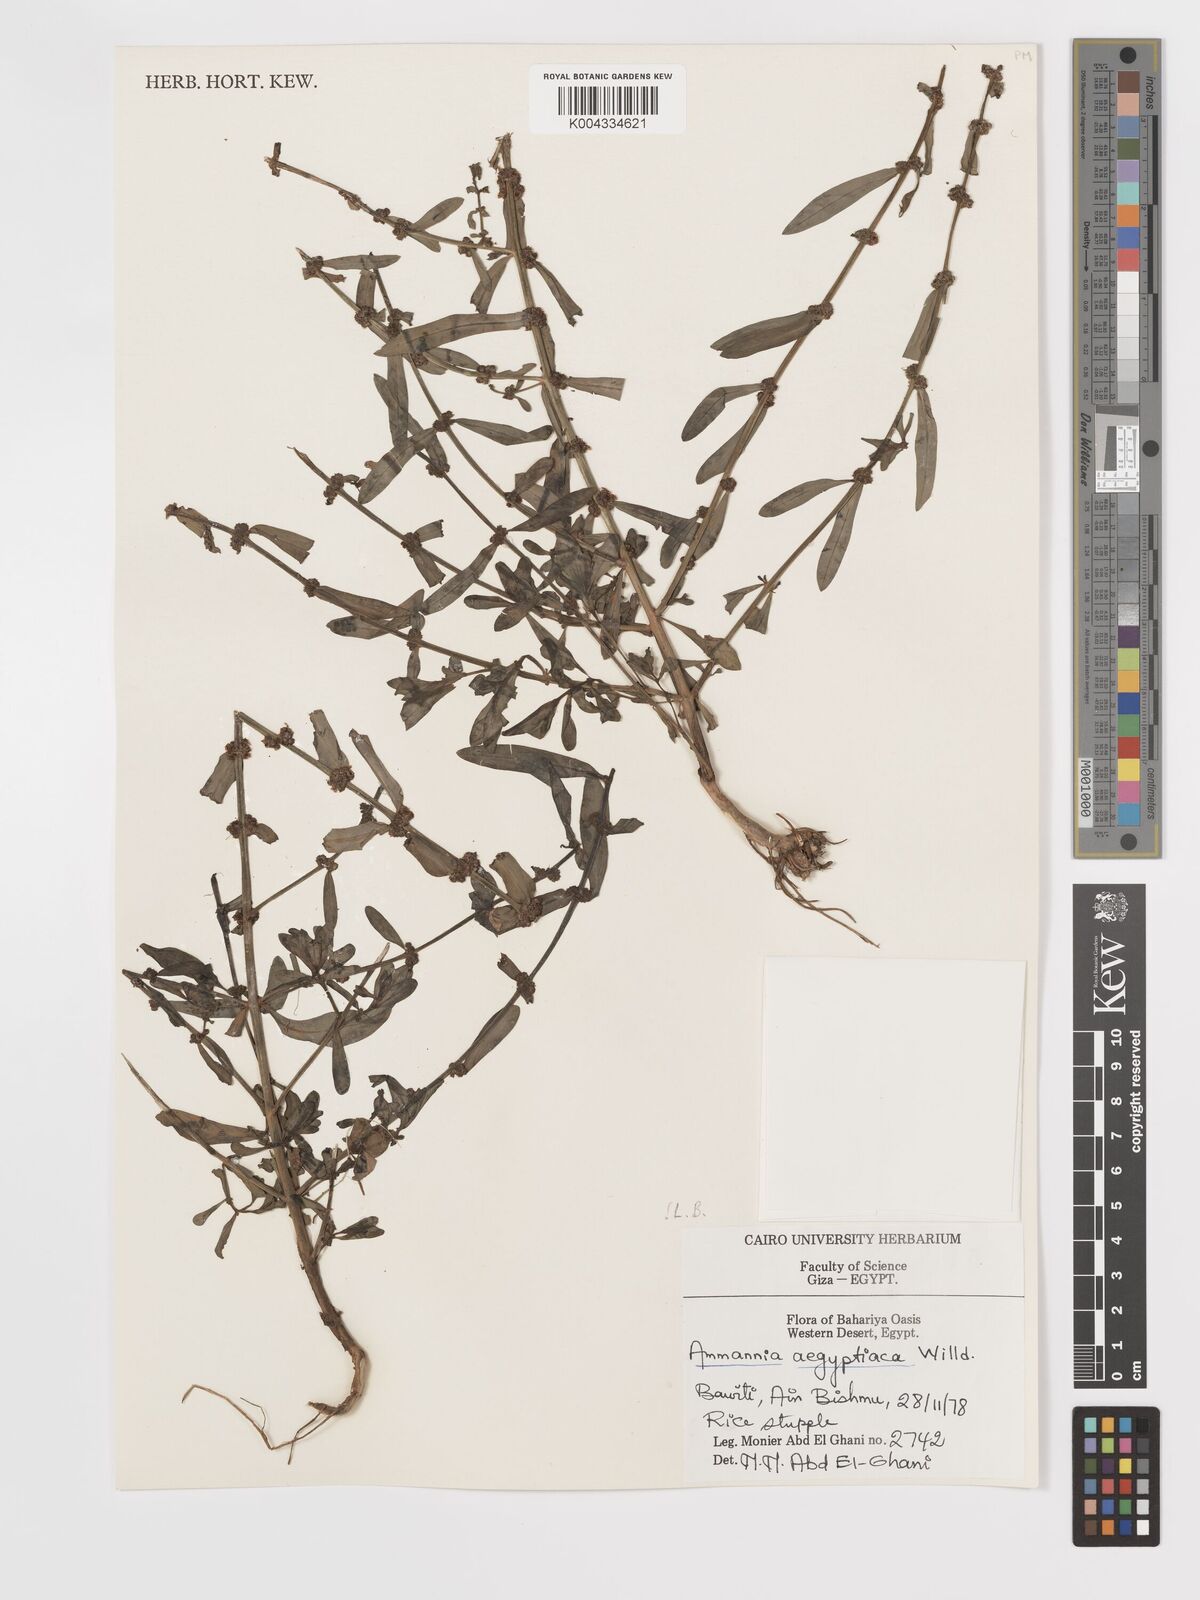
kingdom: Plantae
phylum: Tracheophyta
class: Magnoliopsida
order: Myrtales
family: Lythraceae
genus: Ammannia
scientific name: Ammannia
